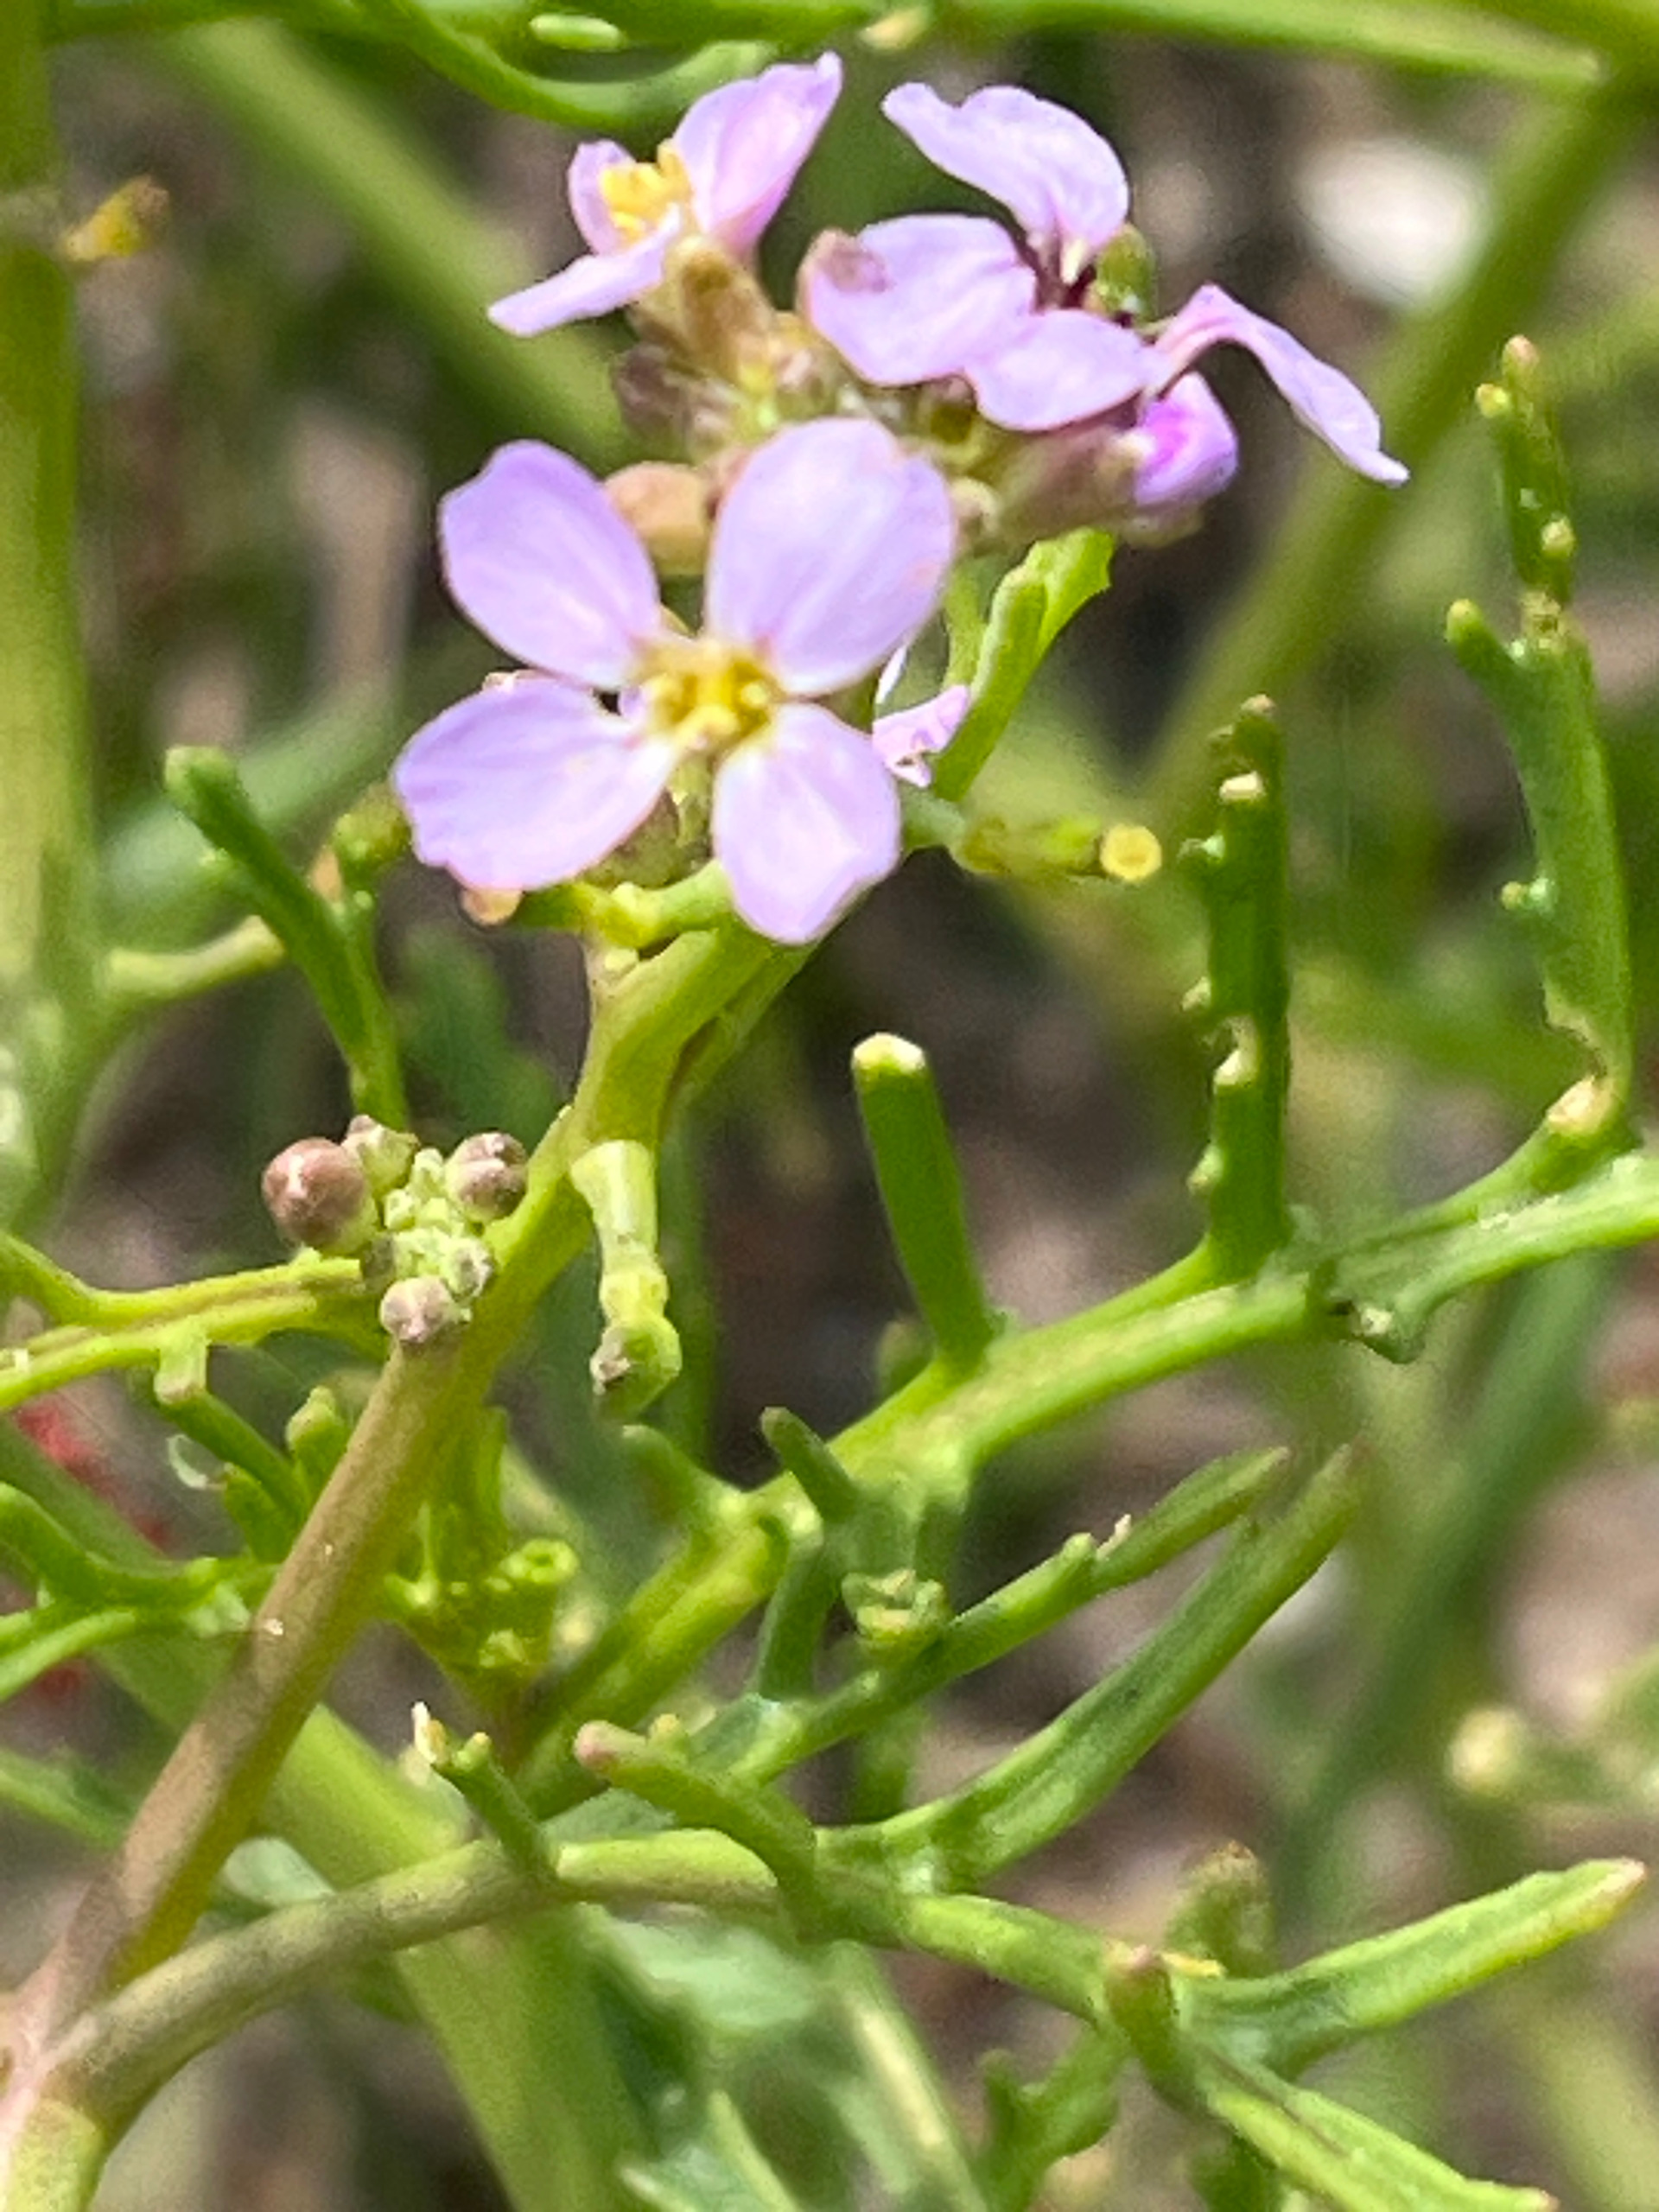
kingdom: Plantae
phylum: Tracheophyta
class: Magnoliopsida
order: Brassicales
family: Brassicaceae
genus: Cakile
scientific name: Cakile maritima
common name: Strandsennep
